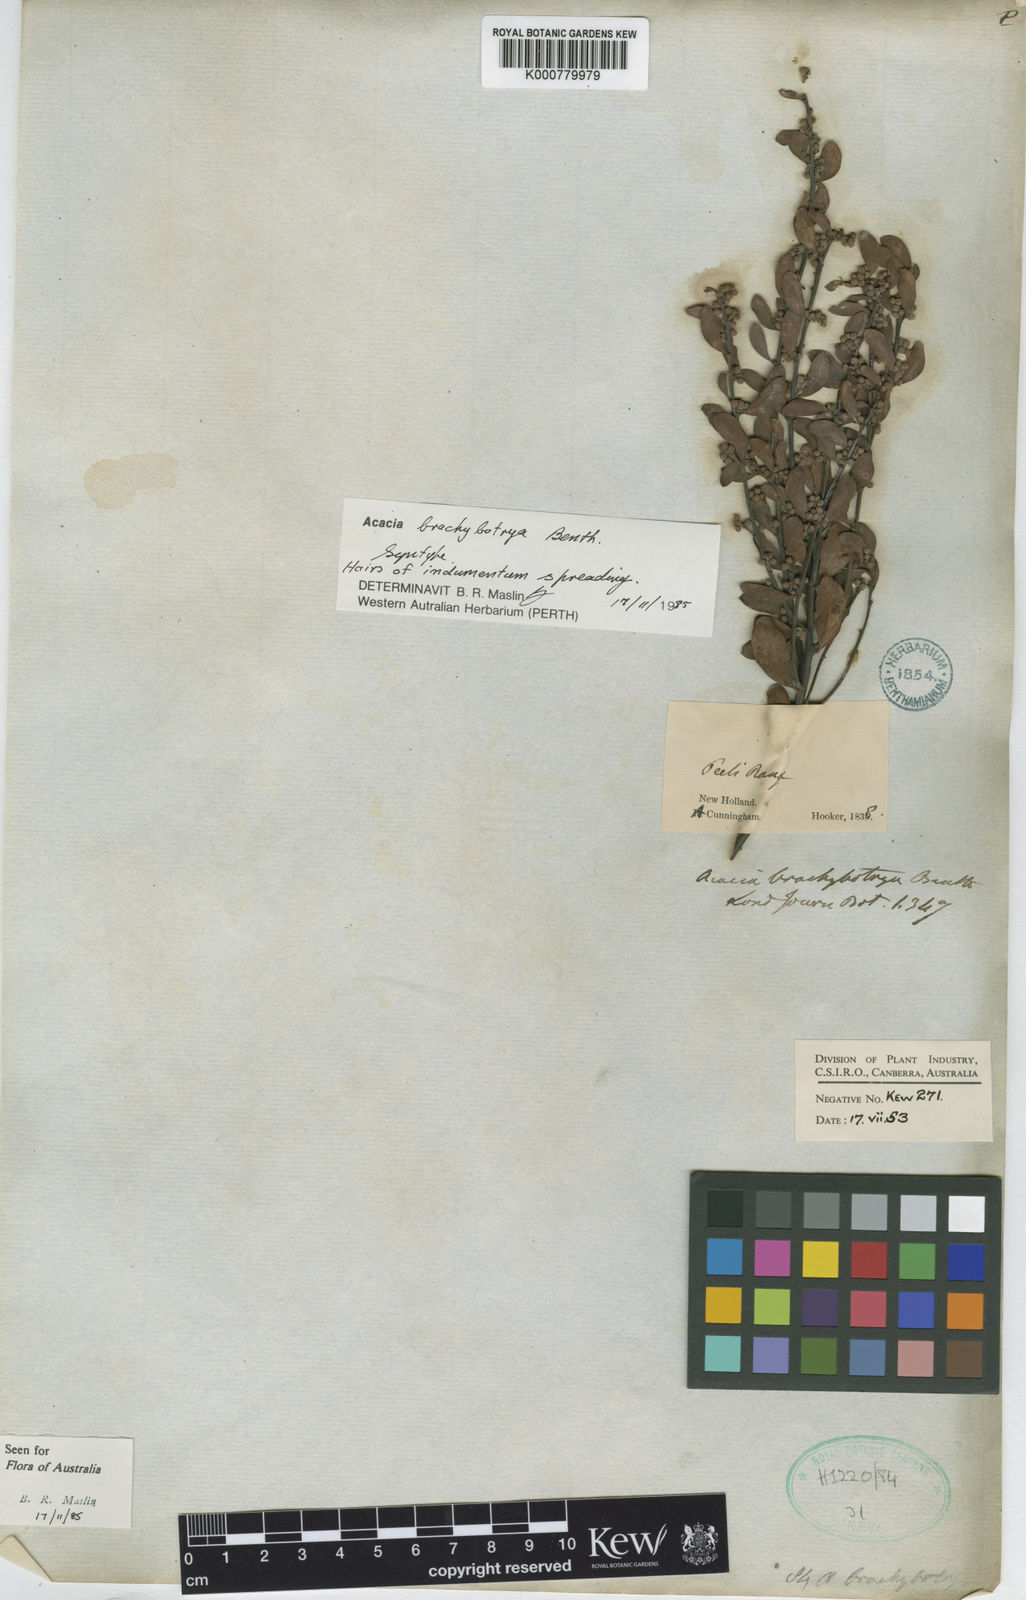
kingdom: Plantae
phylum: Tracheophyta
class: Magnoliopsida
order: Fabales
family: Fabaceae
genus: Acacia
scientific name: Acacia brachybotrya
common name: Grey mulga
